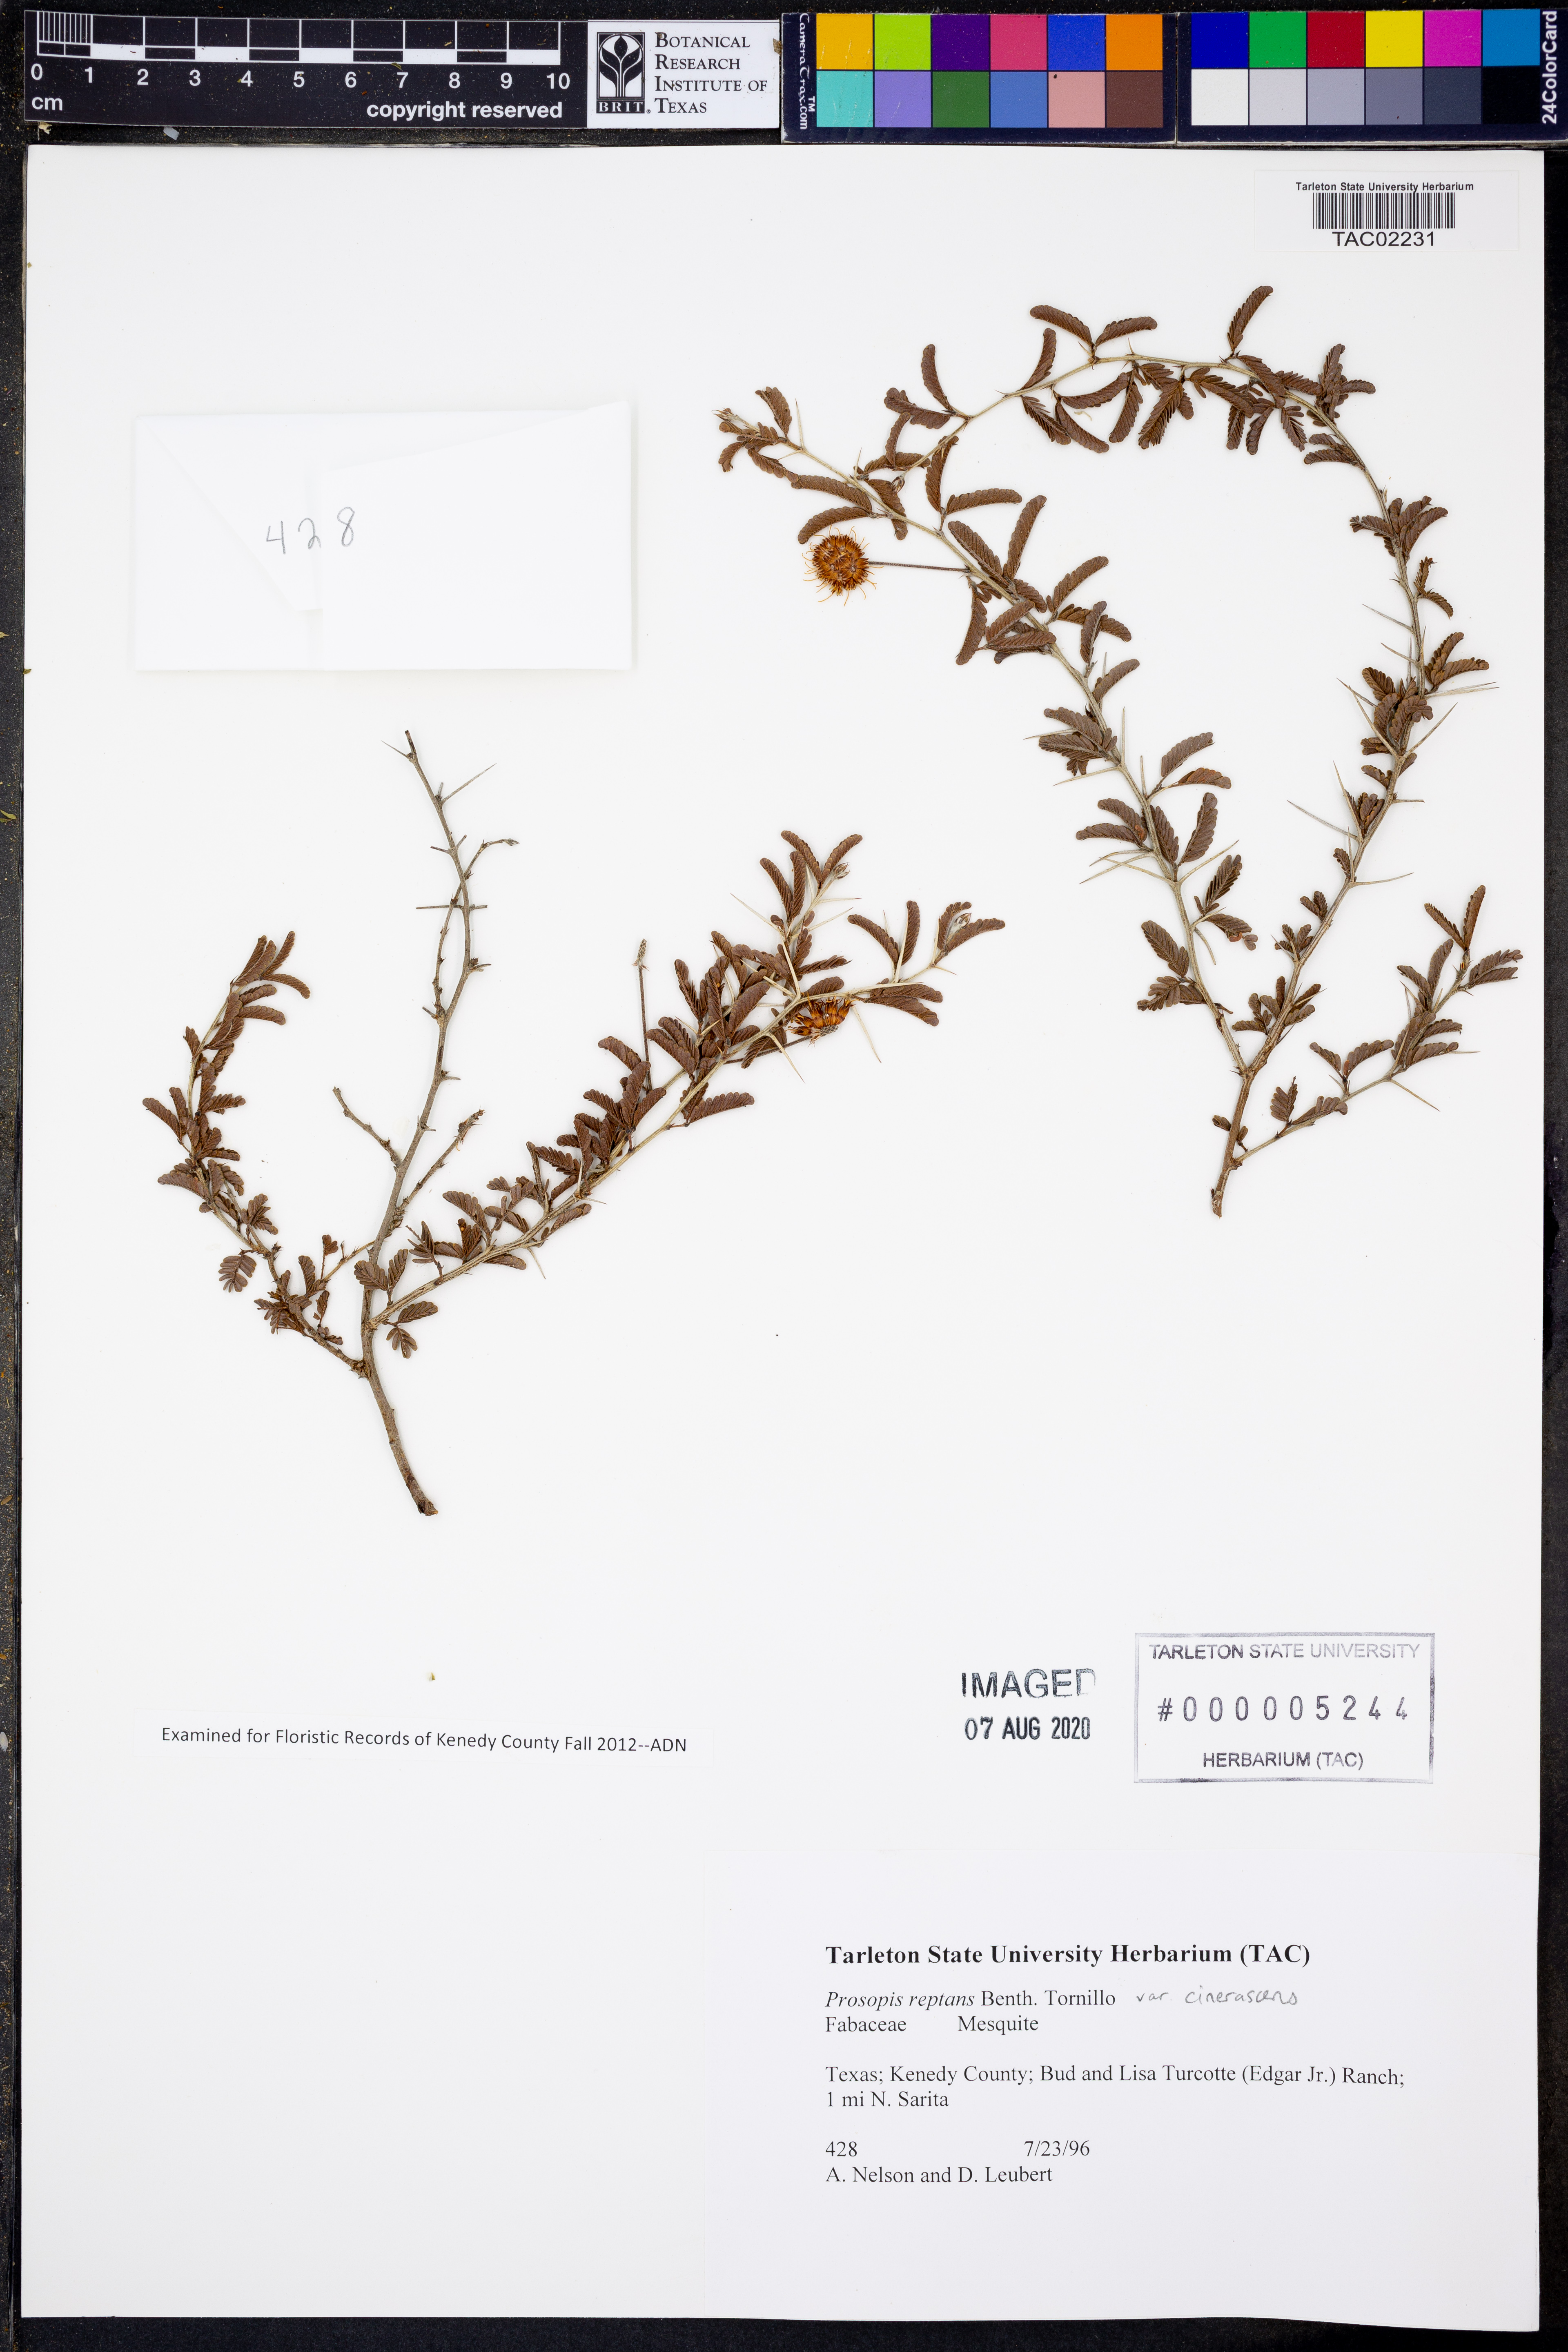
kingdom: Plantae
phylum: Tracheophyta
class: Magnoliopsida
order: Fabales
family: Fabaceae
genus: Prosopis
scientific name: Prosopis cinerascens
